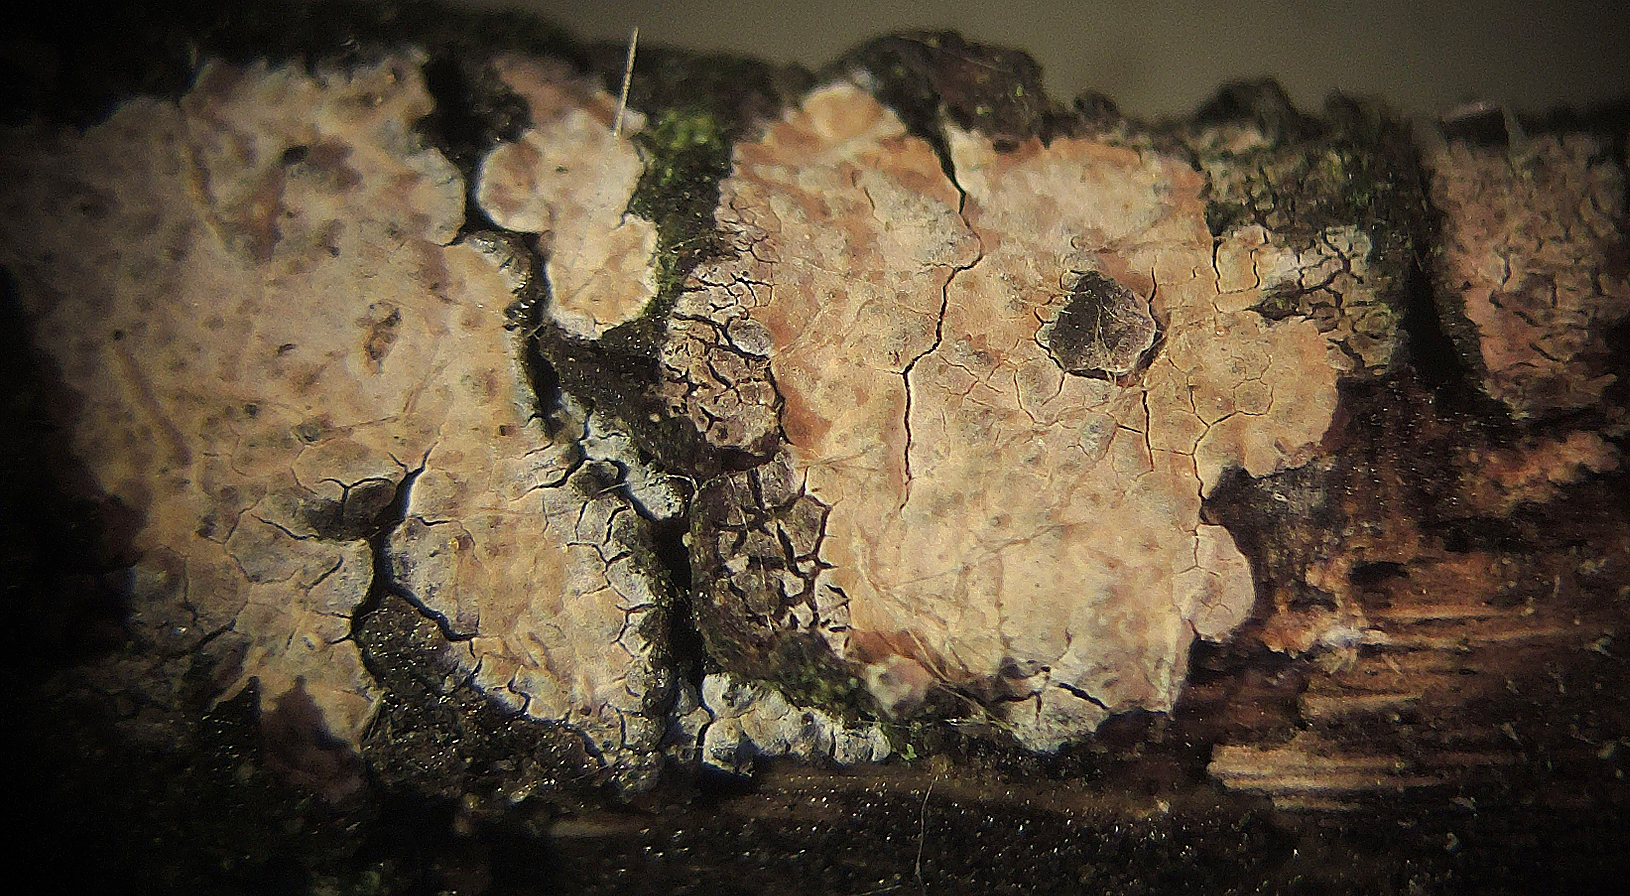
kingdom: Fungi
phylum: Basidiomycota
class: Agaricomycetes
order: Polyporales
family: Meruliaceae
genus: Mycoacia
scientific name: Mycoacia livida
